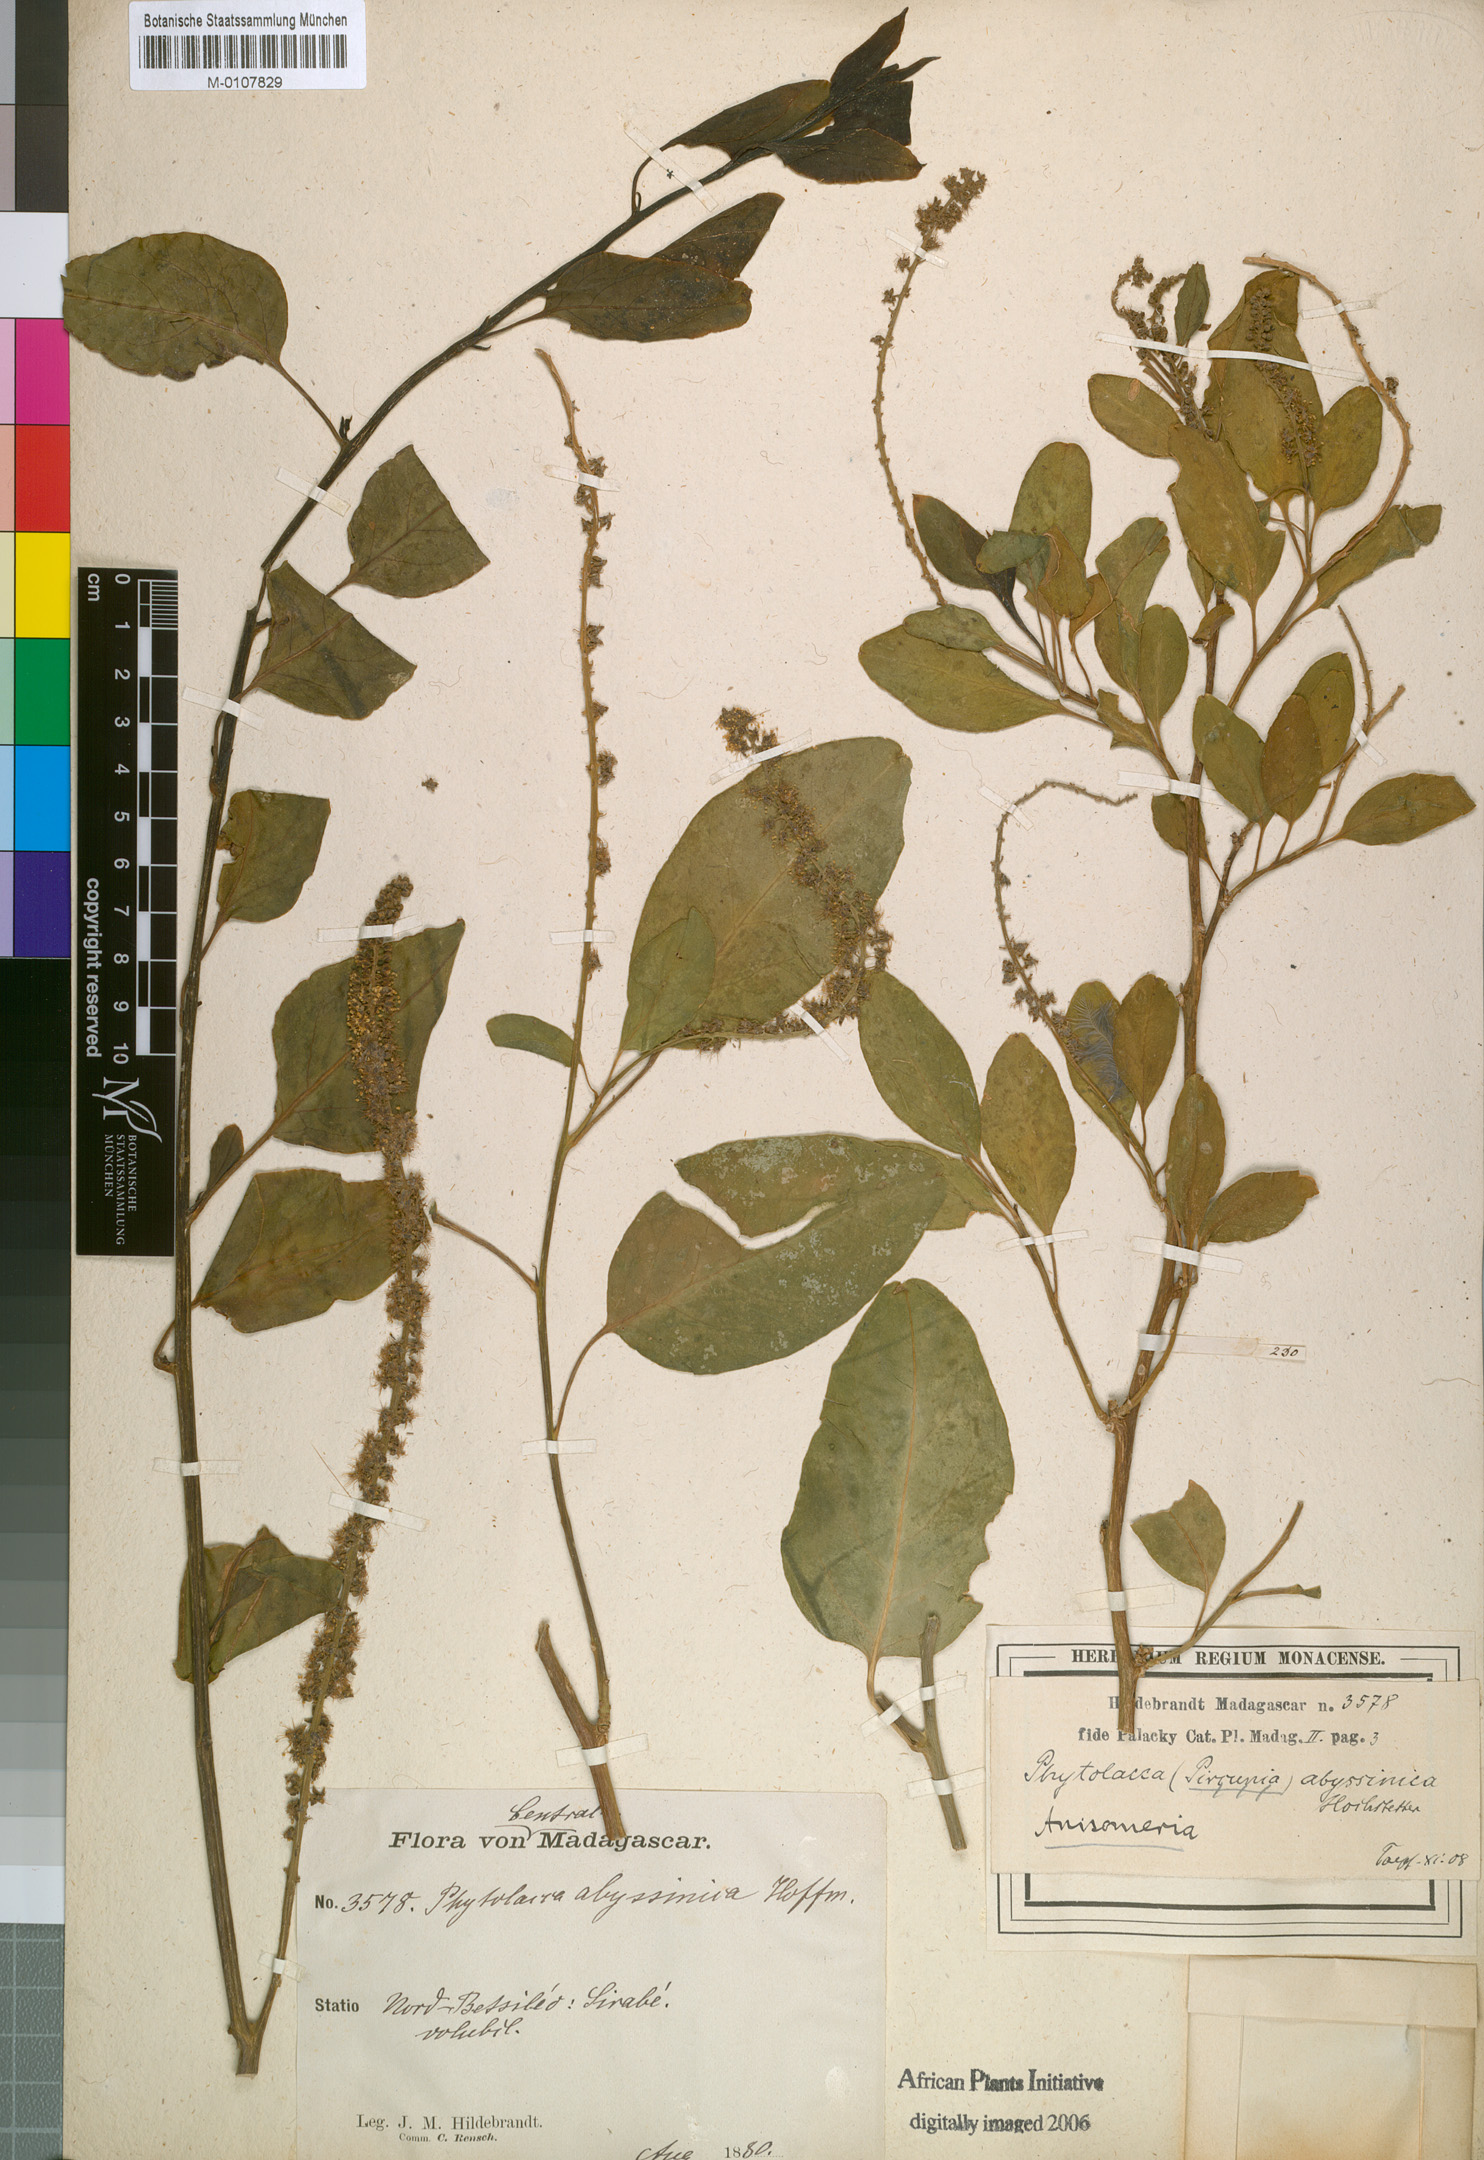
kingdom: Plantae
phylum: Tracheophyta
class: Magnoliopsida
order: Caryophyllales
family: Phytolaccaceae
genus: Phytolacca
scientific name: Phytolacca dodecandra
